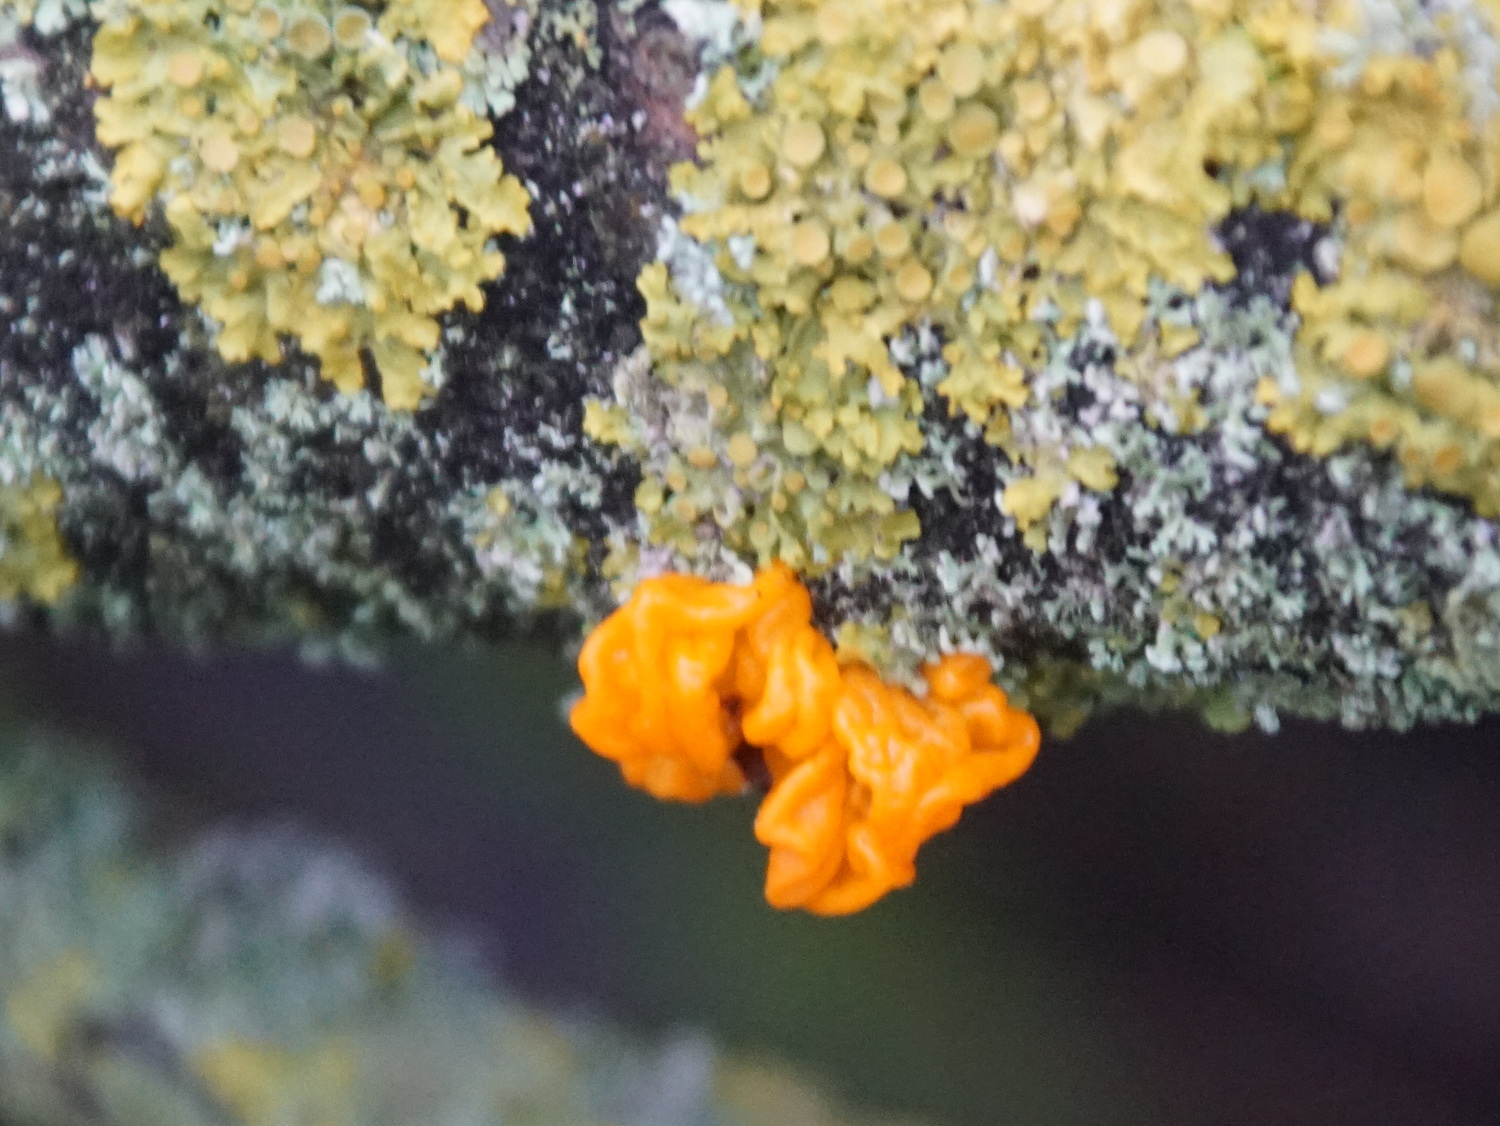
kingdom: Fungi
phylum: Basidiomycota
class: Tremellomycetes
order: Tremellales
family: Tremellaceae
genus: Tremella
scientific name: Tremella mesenterica
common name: gul bævresvamp
